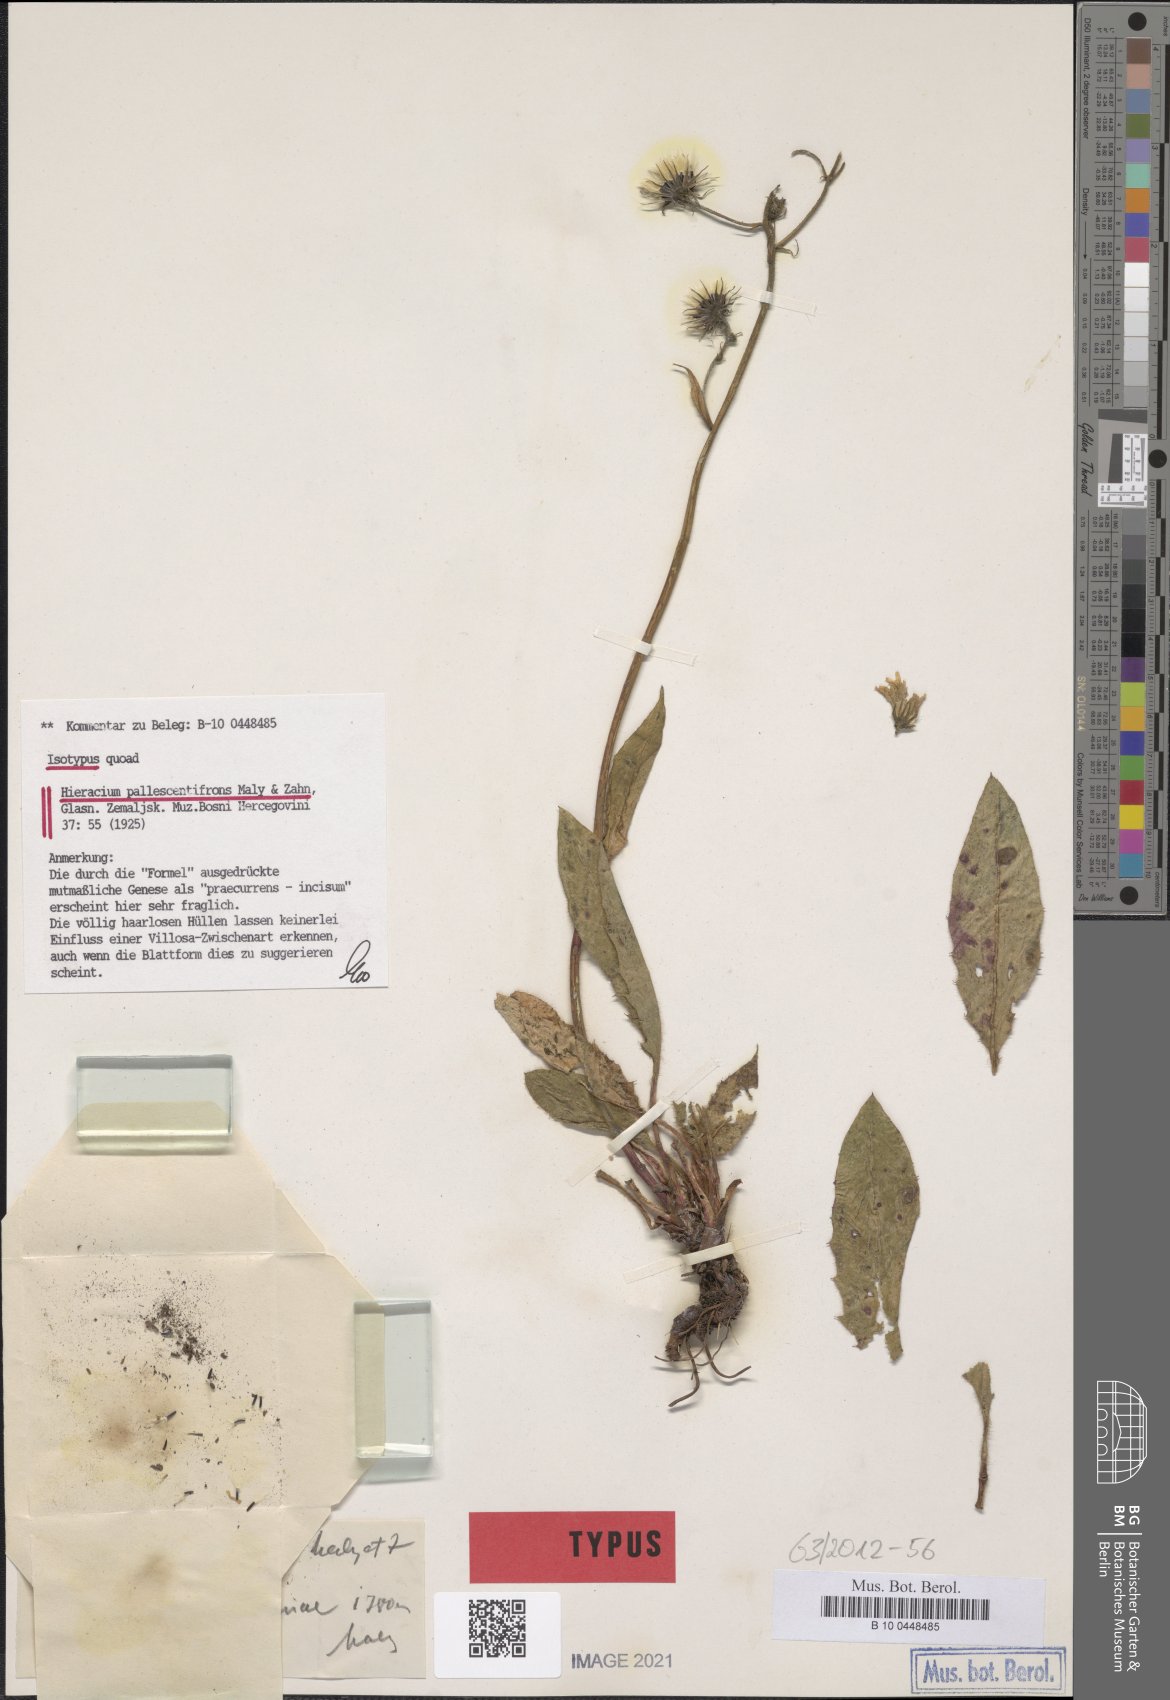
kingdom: Plantae
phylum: Tracheophyta
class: Magnoliopsida
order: Asterales
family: Asteraceae
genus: Hieracium
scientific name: Hieracium murorum
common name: Wall hawkweed
